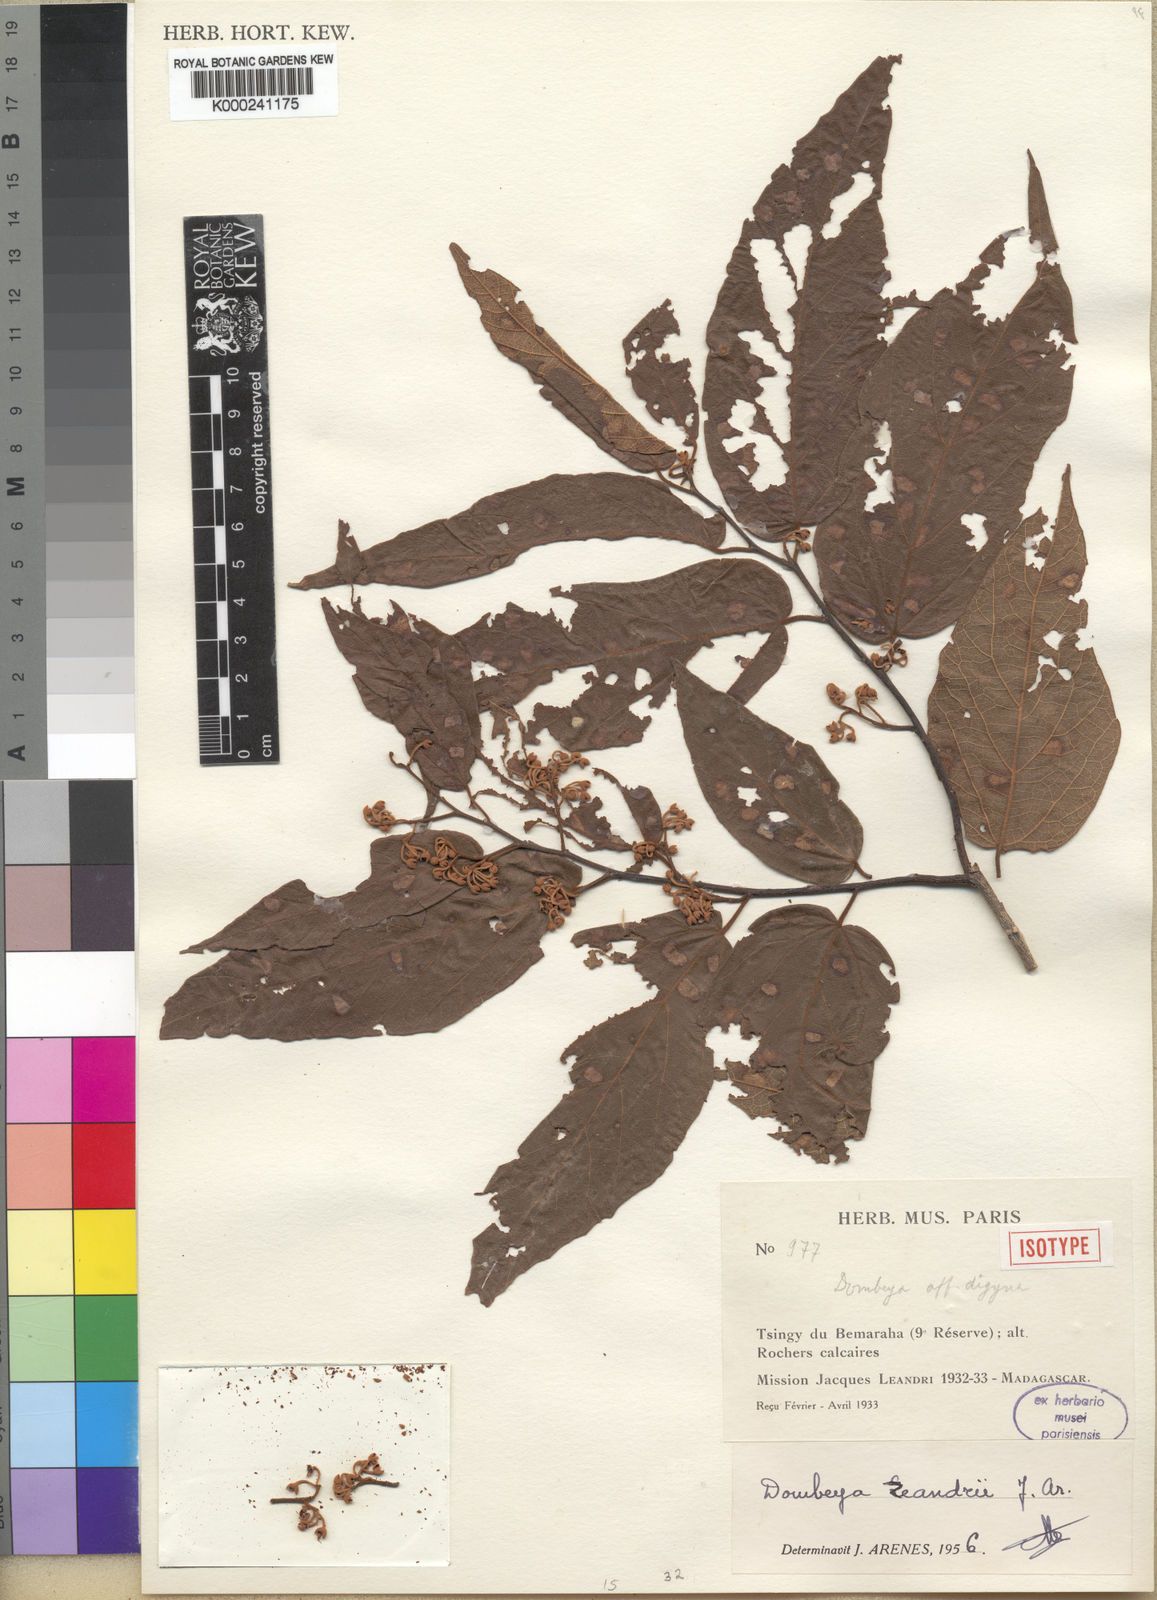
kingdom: Plantae
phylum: Tracheophyta
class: Magnoliopsida
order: Malvales
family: Malvaceae
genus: Dombeya
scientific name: Dombeya
